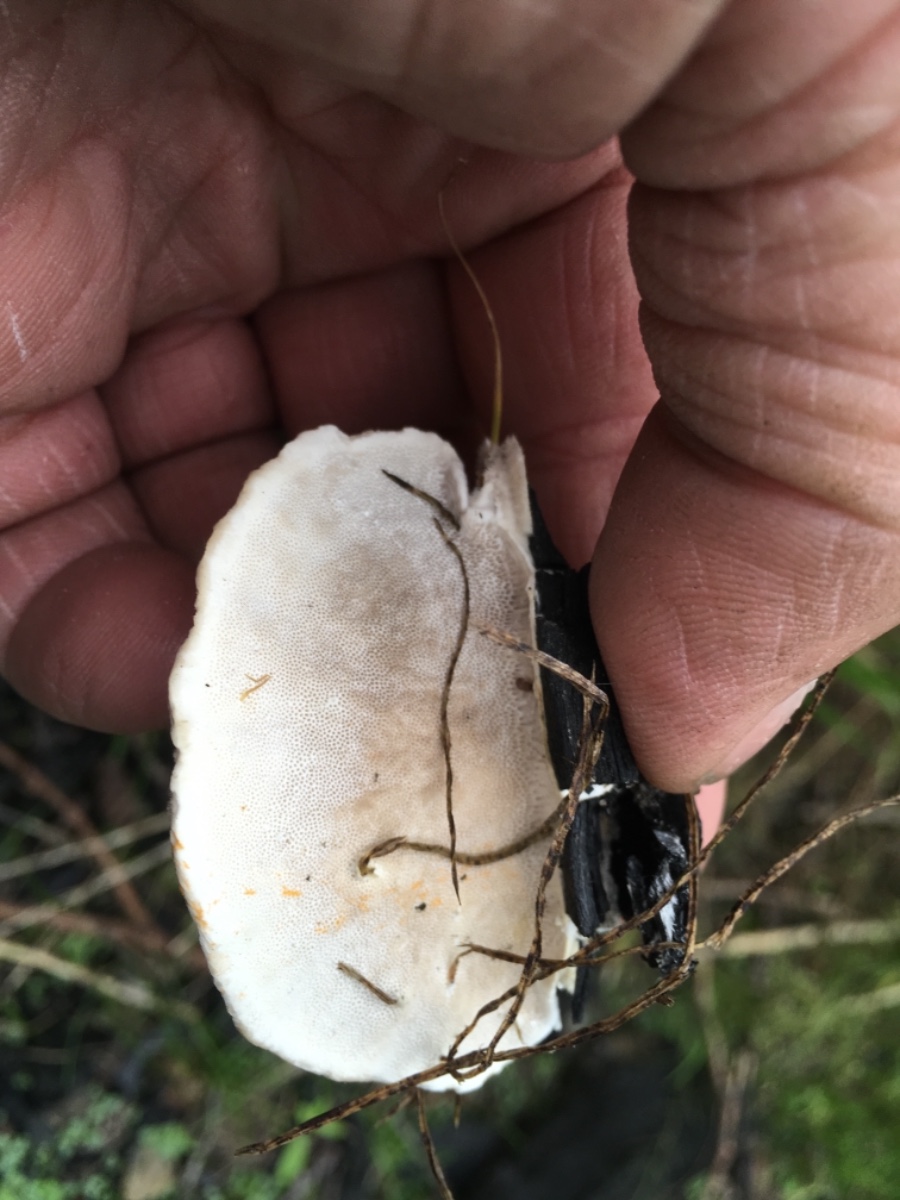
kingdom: Fungi
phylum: Basidiomycota
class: Agaricomycetes
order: Polyporales
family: Polyporaceae
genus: Trametes
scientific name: Trametes hirsuta
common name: håret læderporesvamp
